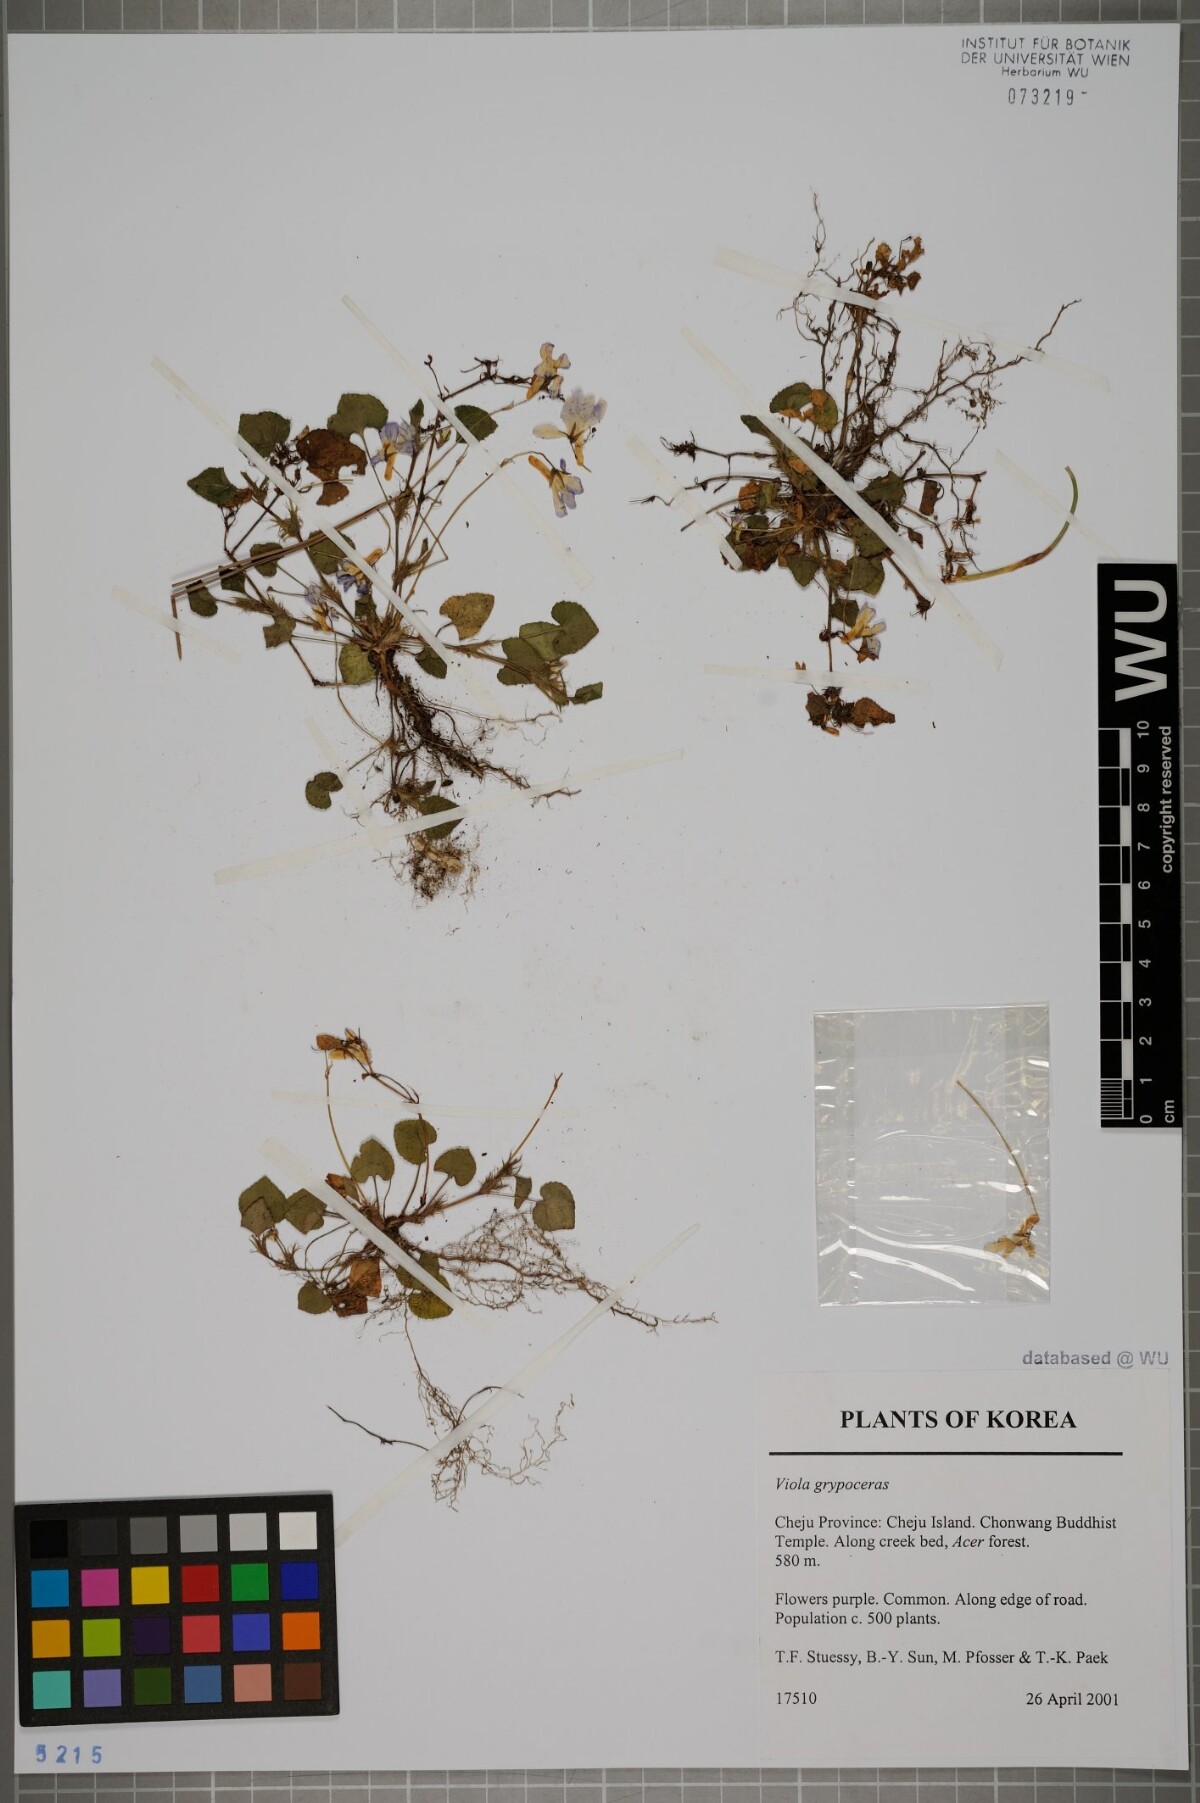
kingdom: Plantae
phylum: Tracheophyta
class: Magnoliopsida
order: Malpighiales
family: Violaceae
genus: Viola
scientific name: Viola grypoceras
